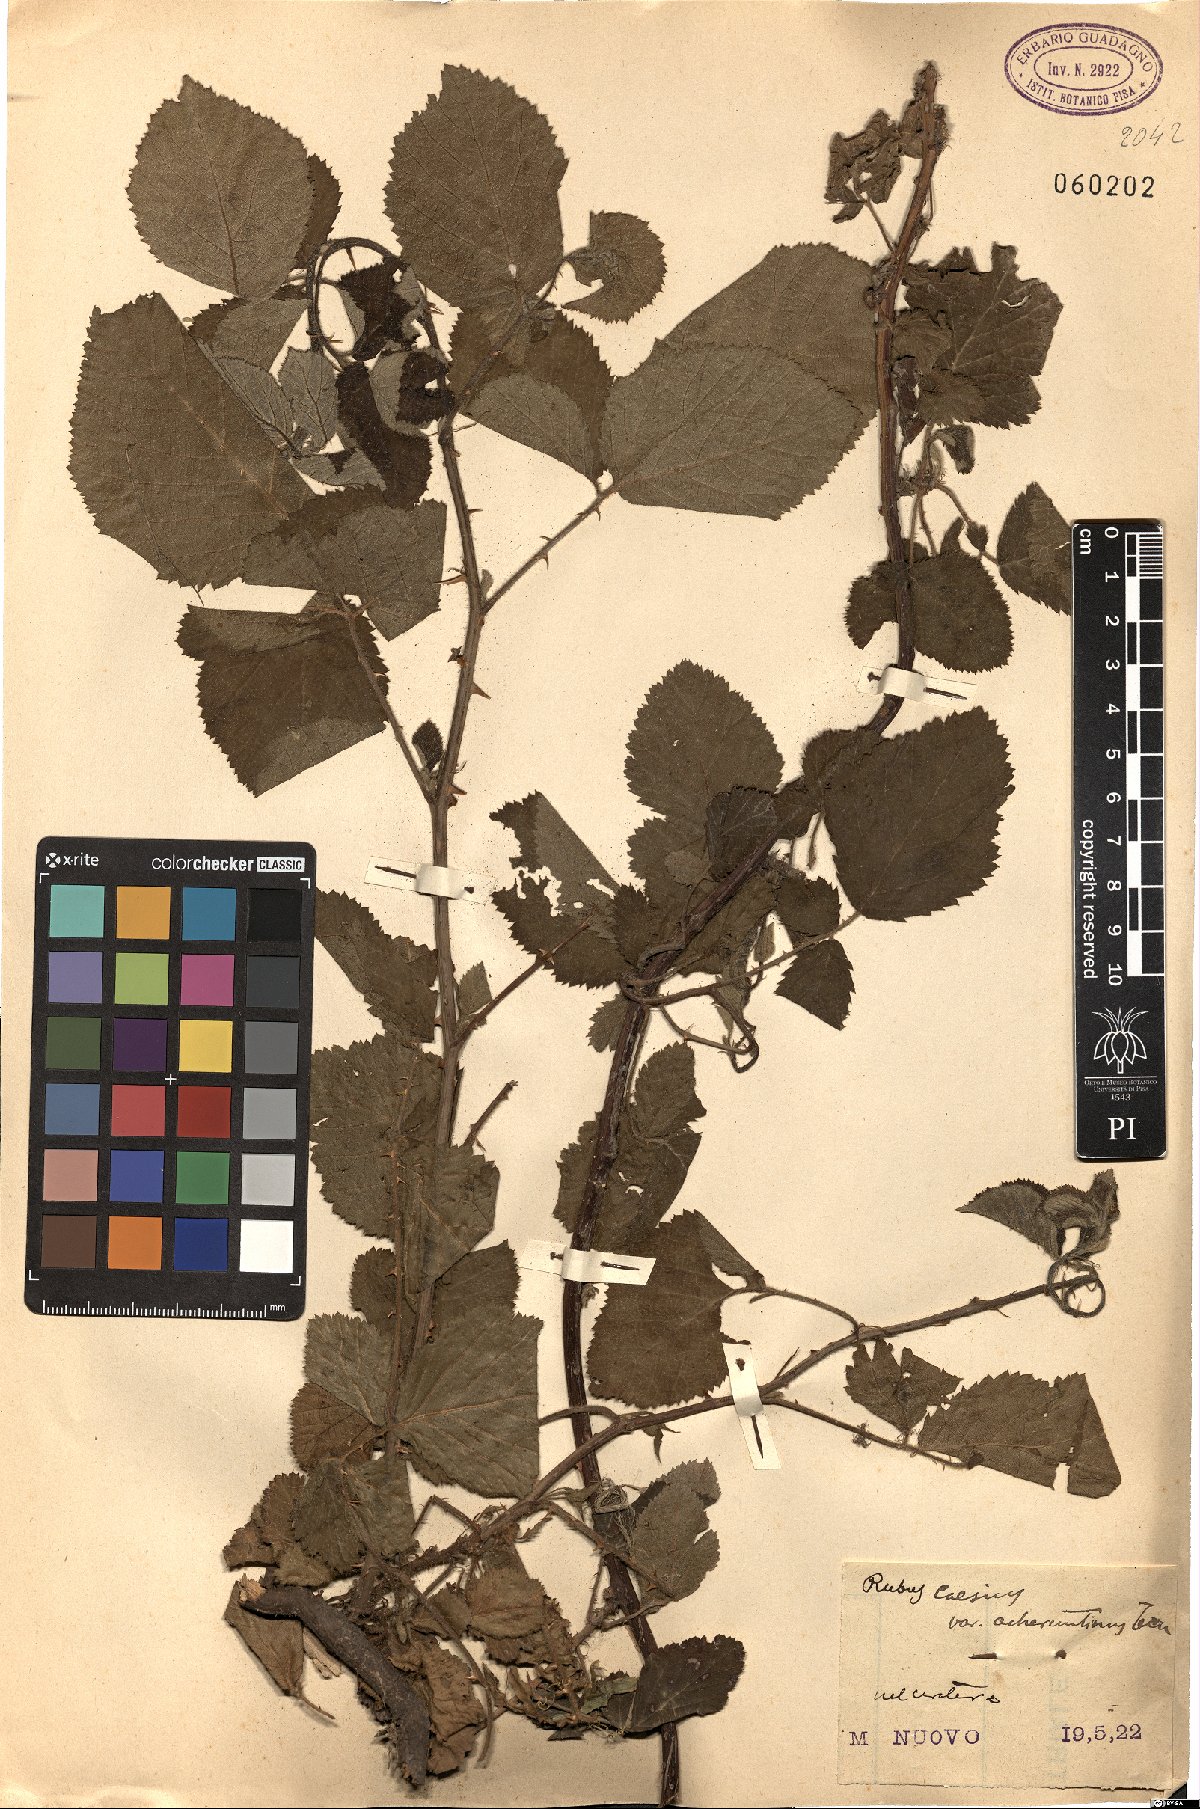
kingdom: Plantae
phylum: Tracheophyta
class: Magnoliopsida
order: Rosales
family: Rosaceae
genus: Rubus
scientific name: Rubus caesius
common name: Dewberry
